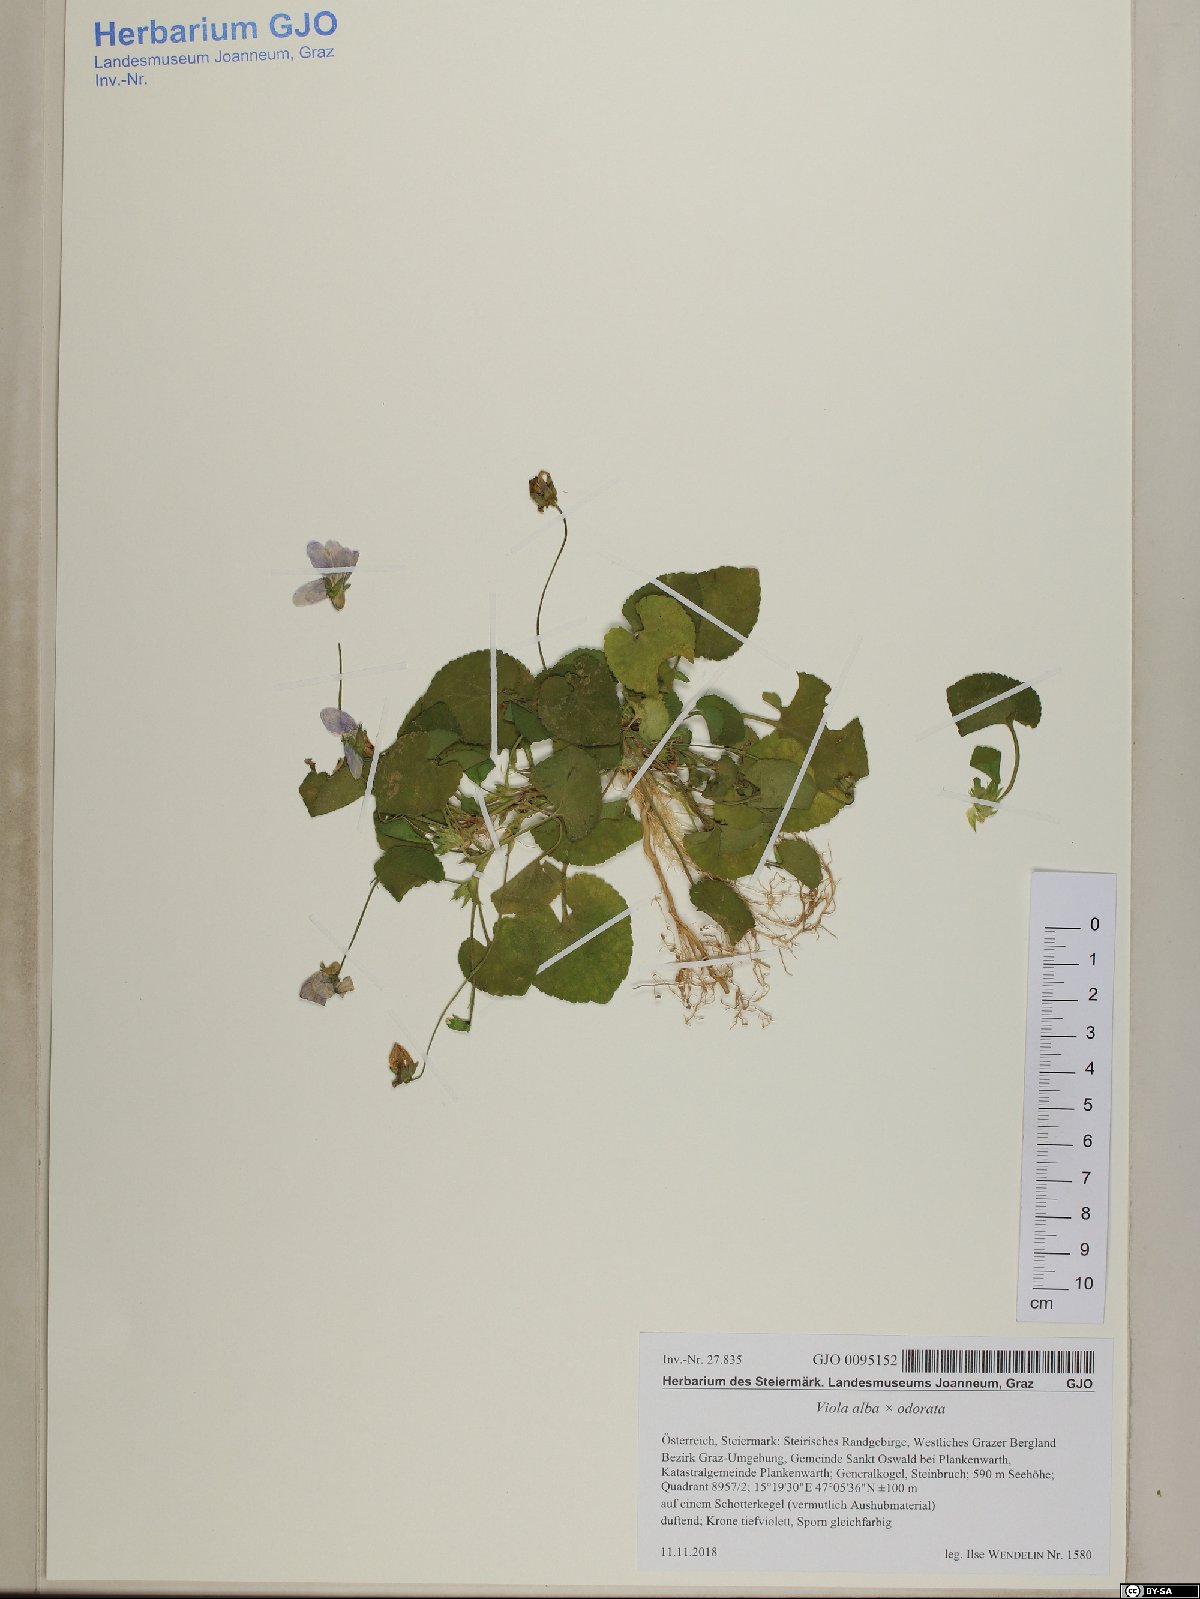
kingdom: Plantae
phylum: Tracheophyta
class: Magnoliopsida
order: Malpighiales
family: Violaceae
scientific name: Violaceae
